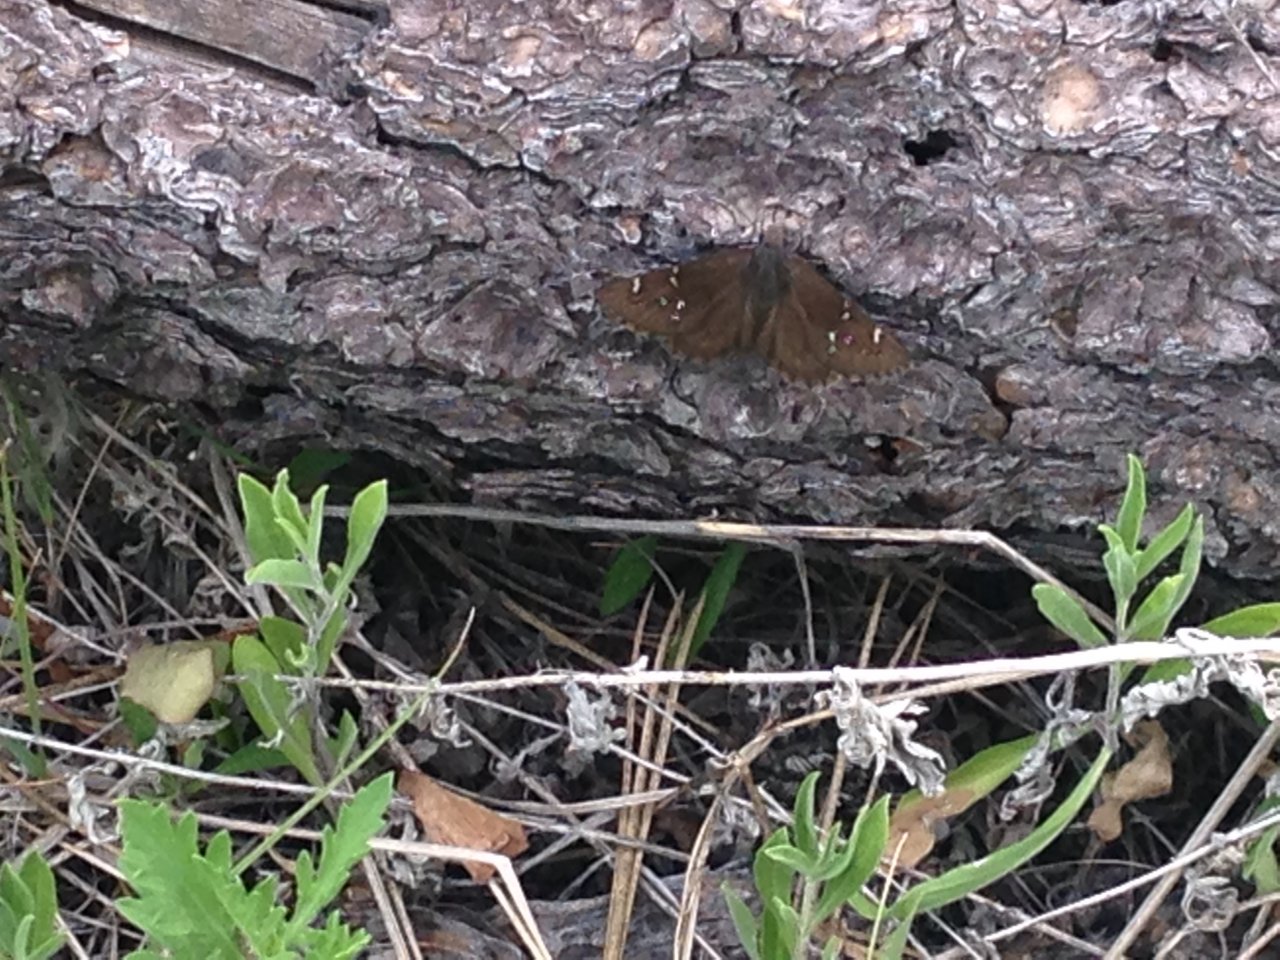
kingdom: Animalia
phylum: Arthropoda
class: Insecta
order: Lepidoptera
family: Hesperiidae
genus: Autochton
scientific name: Autochton
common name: Northern Cloudywing
